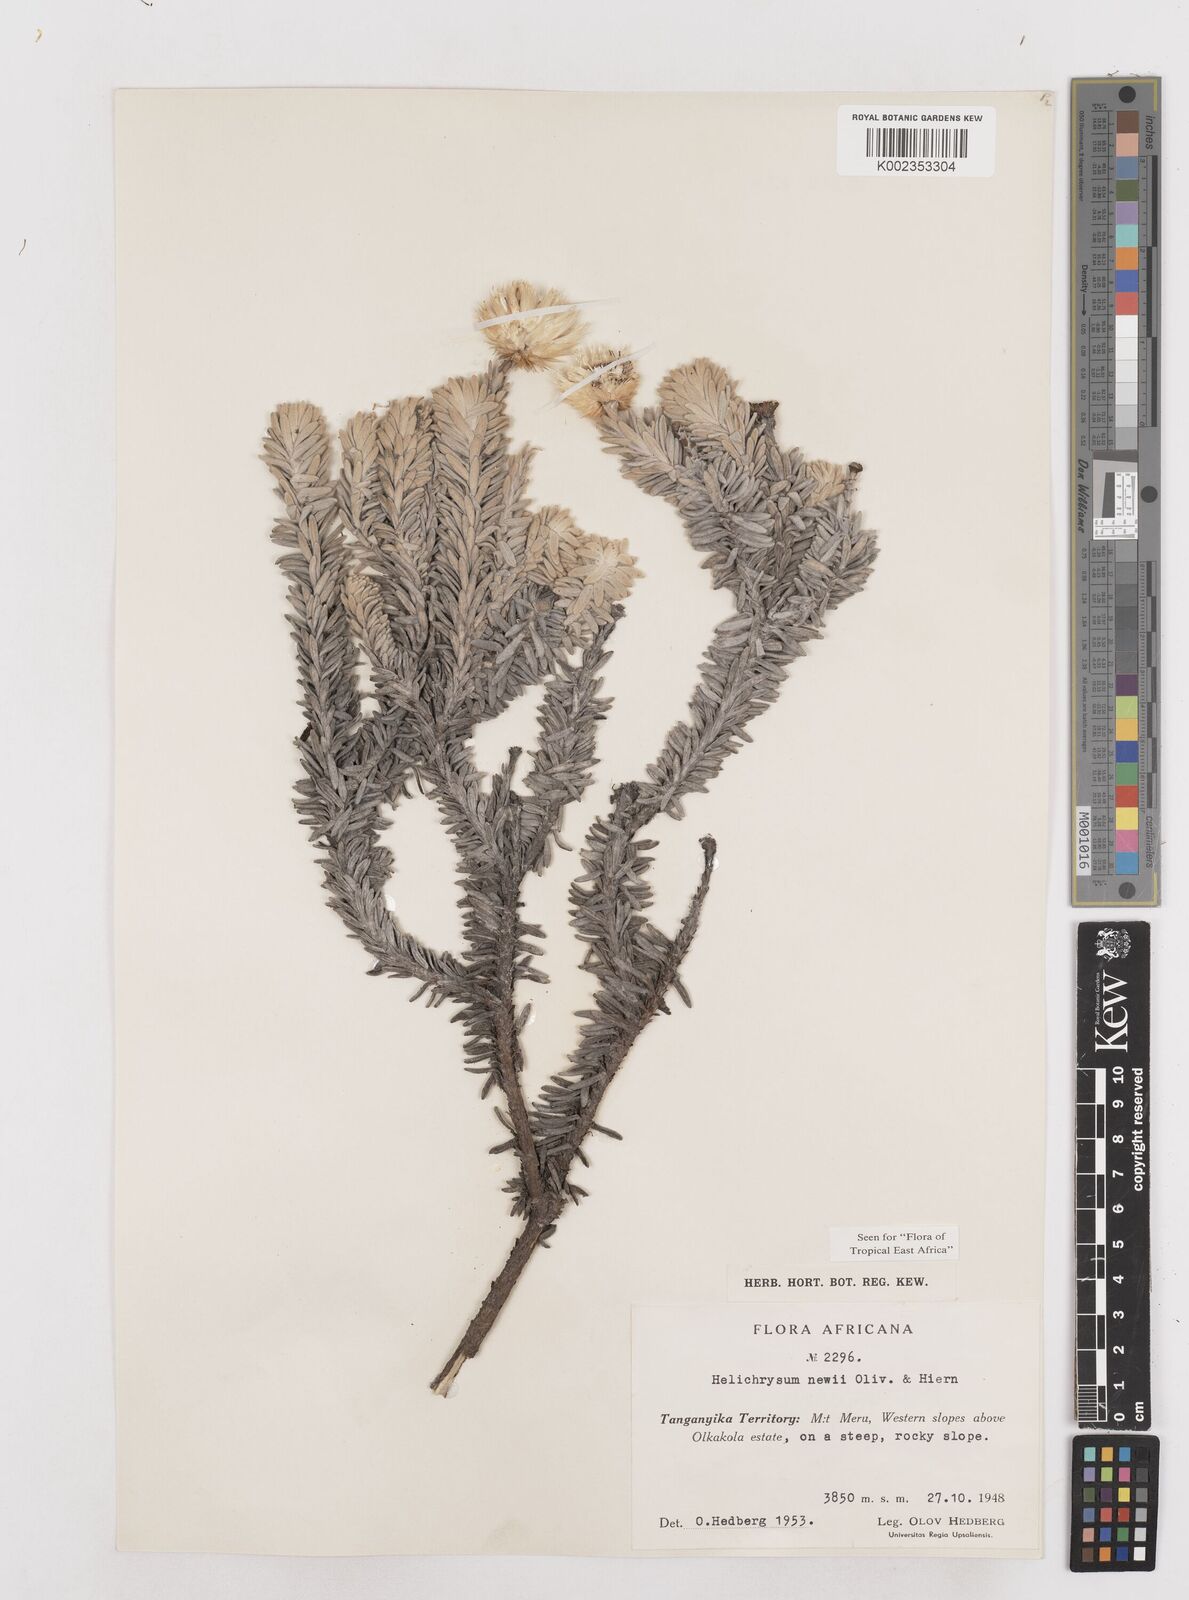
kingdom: Plantae
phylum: Tracheophyta
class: Magnoliopsida
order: Asterales
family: Asteraceae
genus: Helichrysum
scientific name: Helichrysum newii
